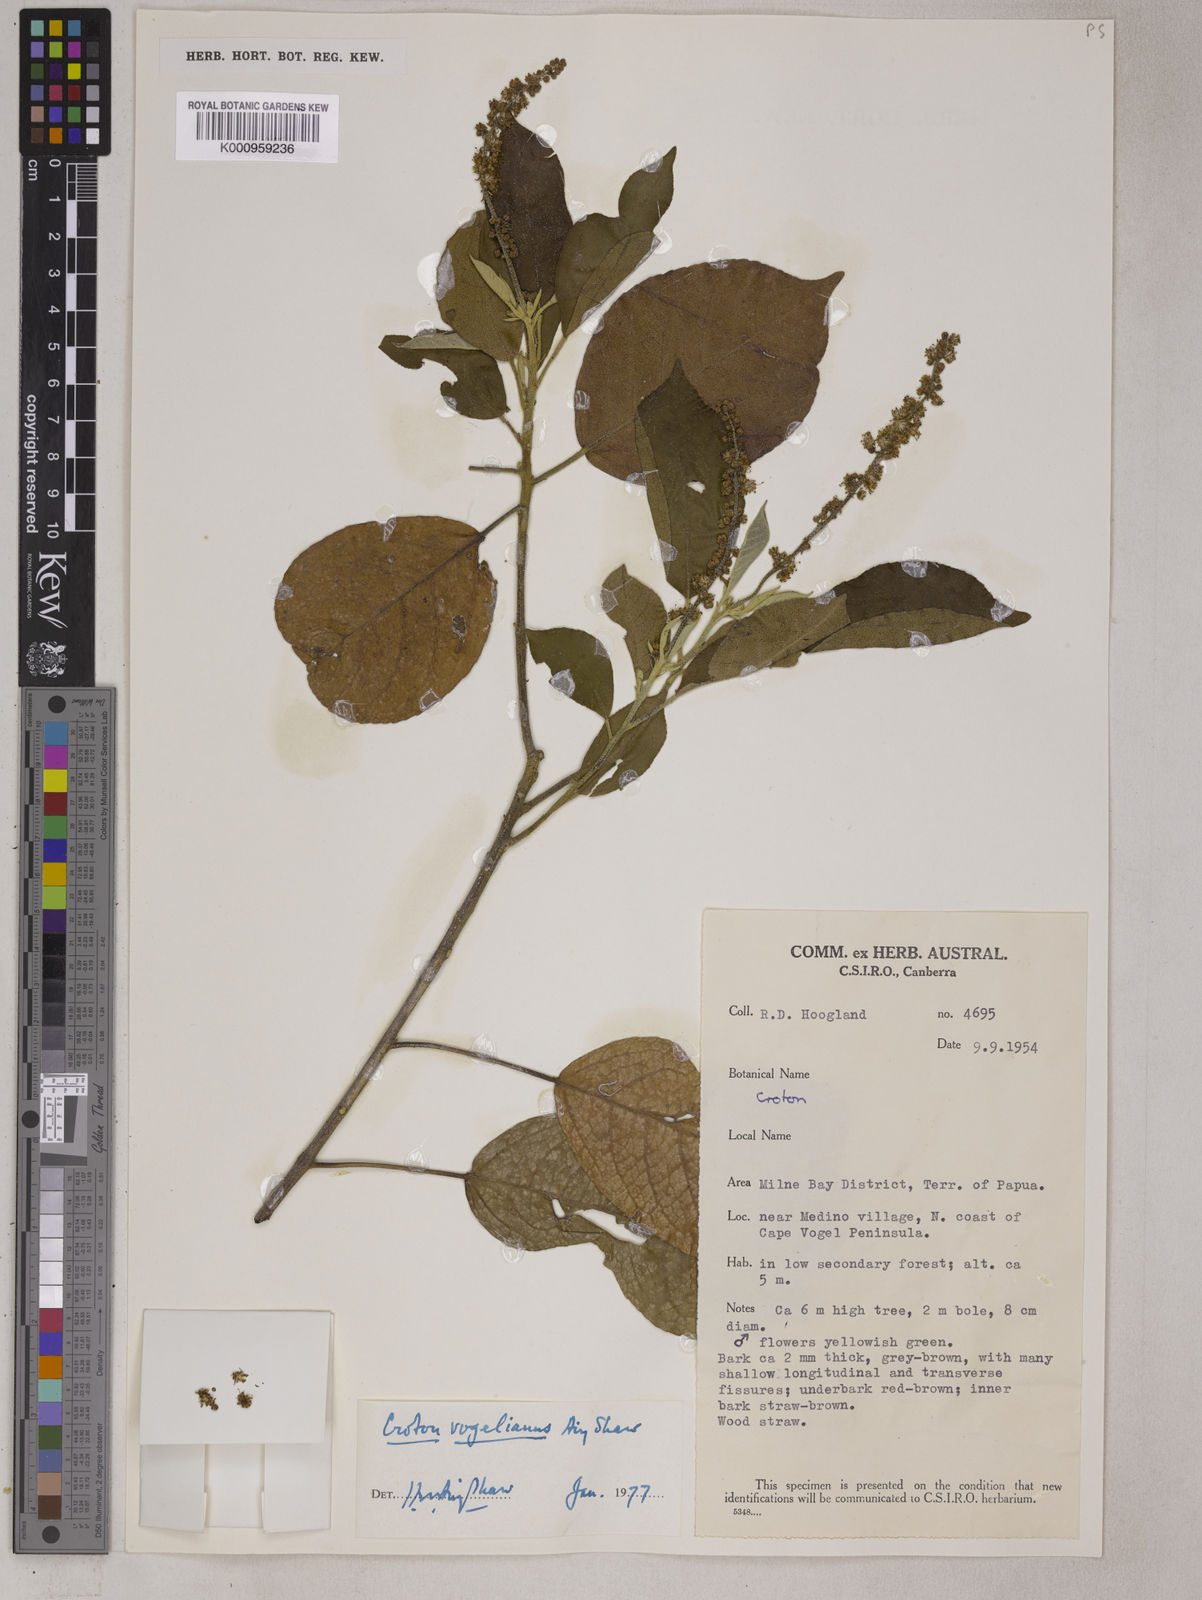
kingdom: Plantae
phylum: Tracheophyta
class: Magnoliopsida
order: Malpighiales
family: Euphorbiaceae
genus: Croton
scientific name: Croton vogelianus
